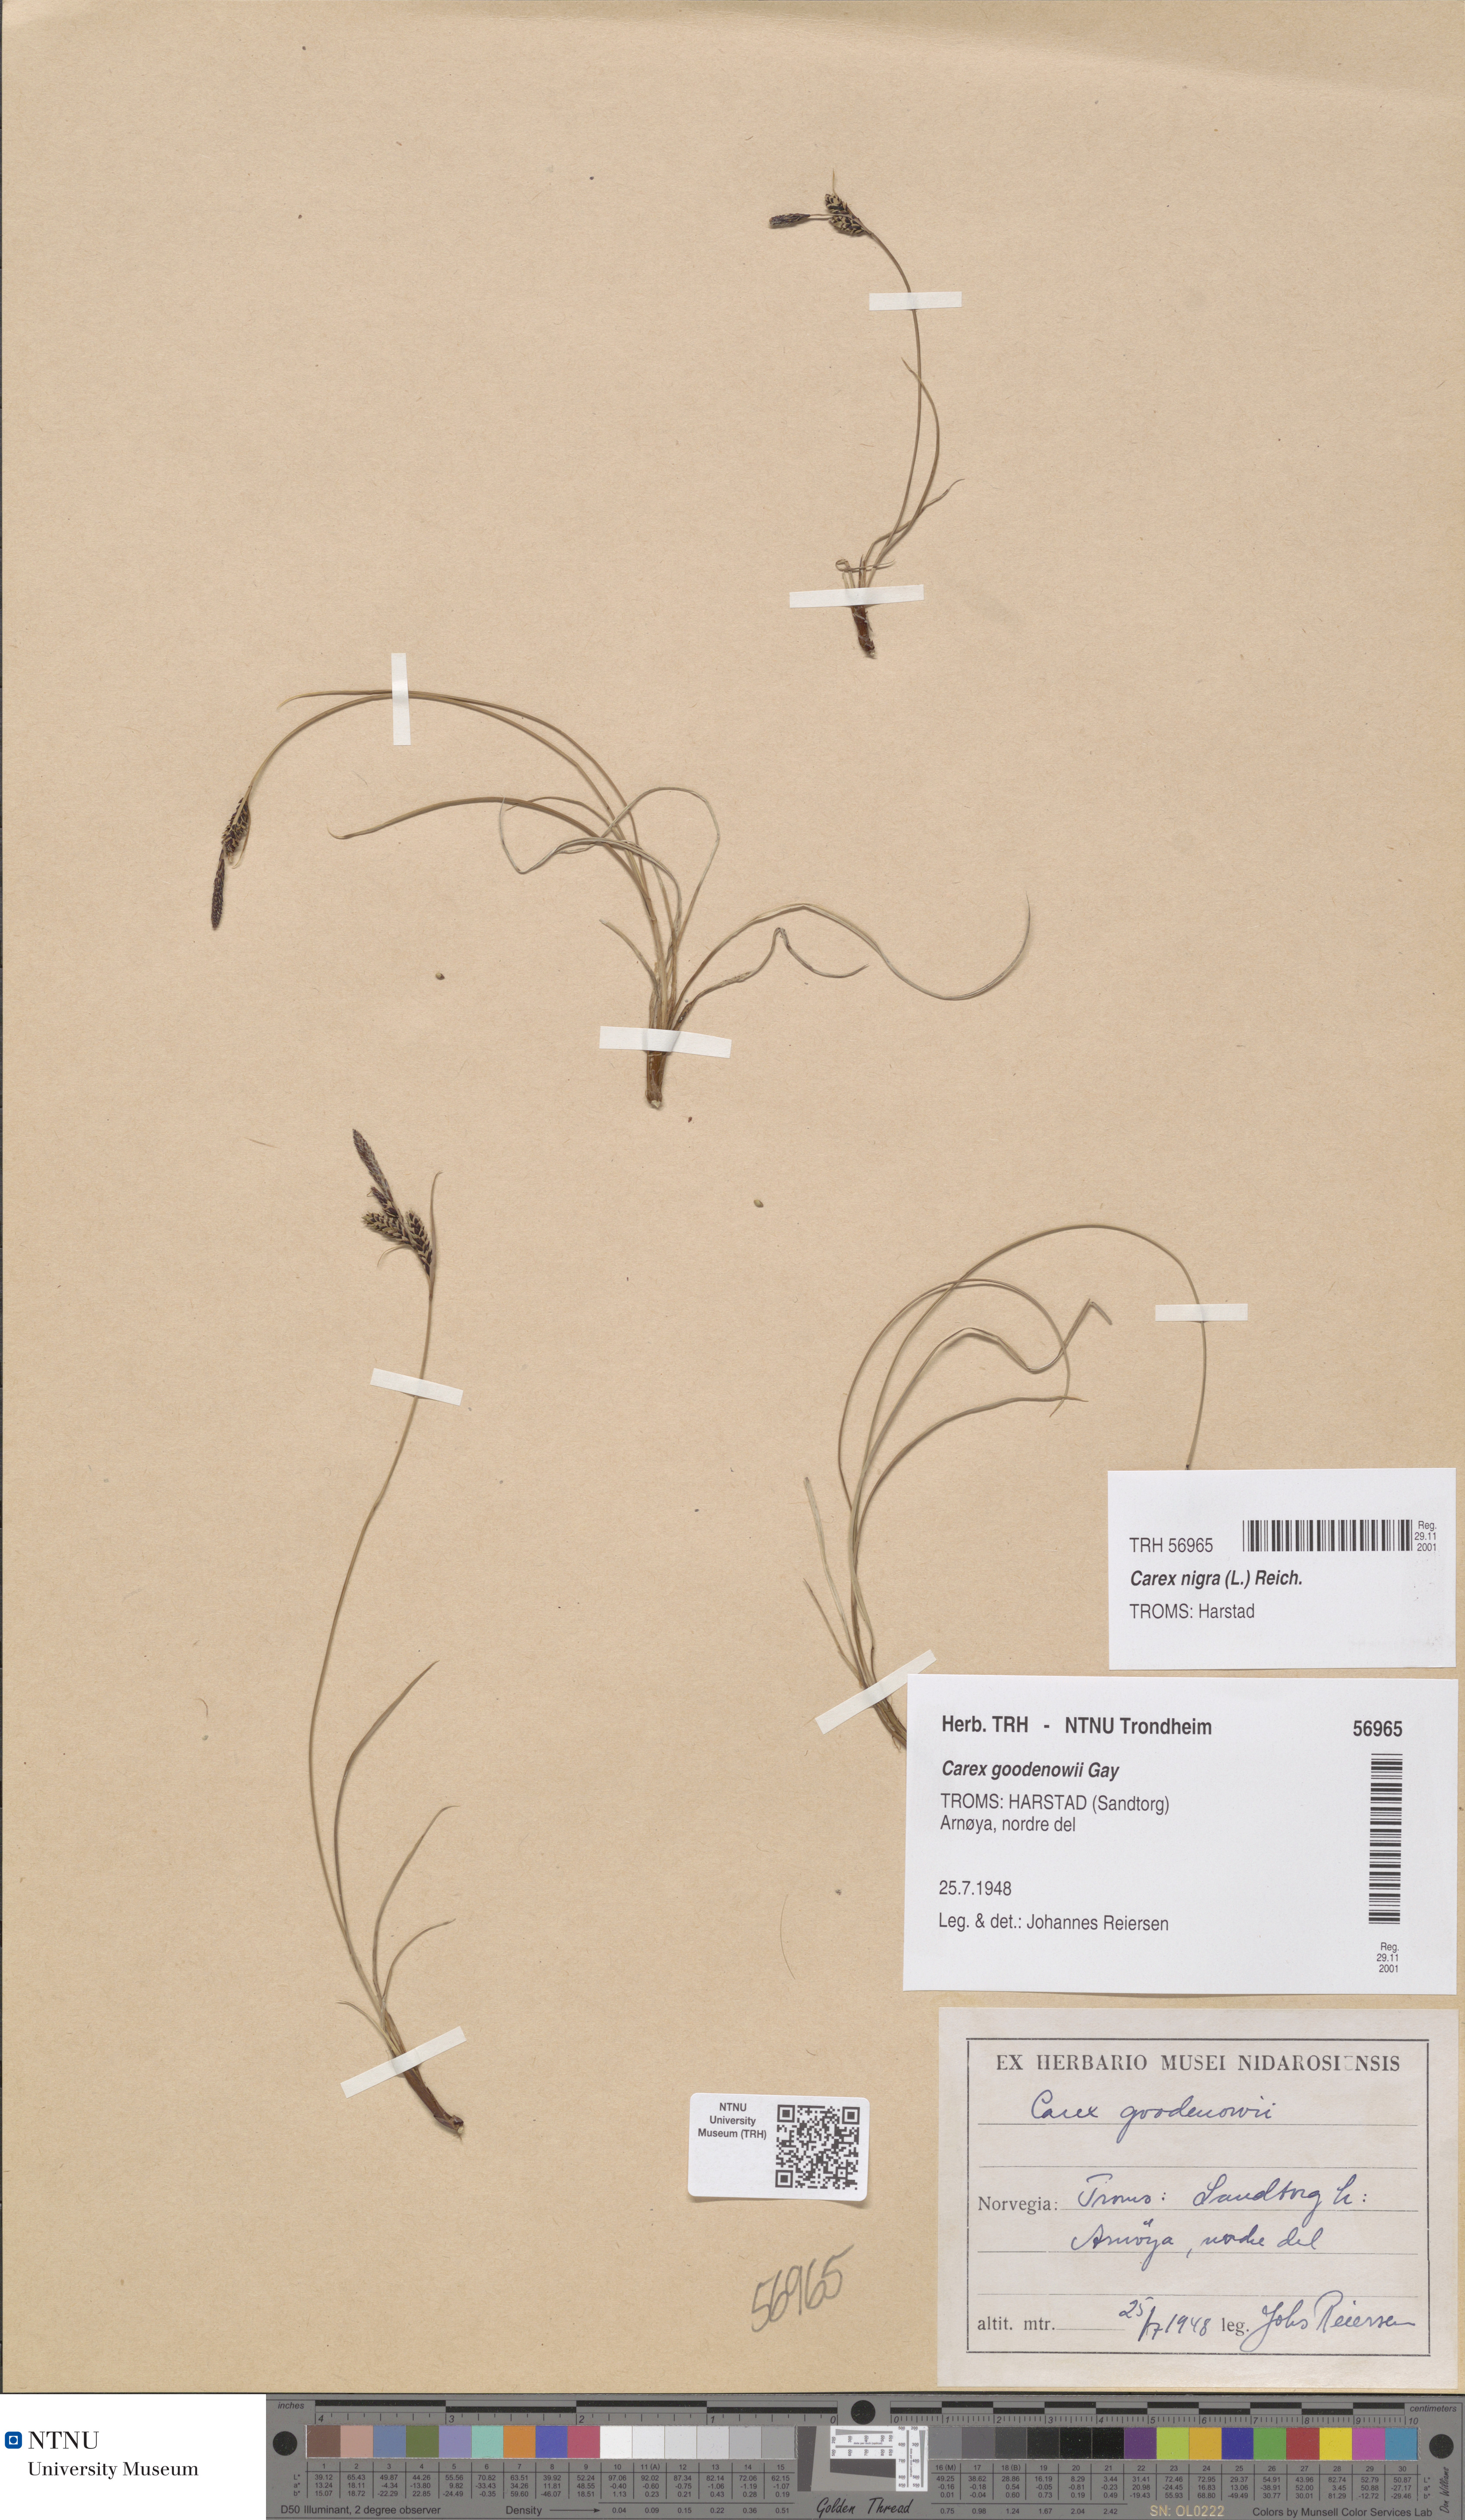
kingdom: Plantae
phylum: Tracheophyta
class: Liliopsida
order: Poales
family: Cyperaceae
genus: Carex
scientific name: Carex nigra
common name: Common sedge
